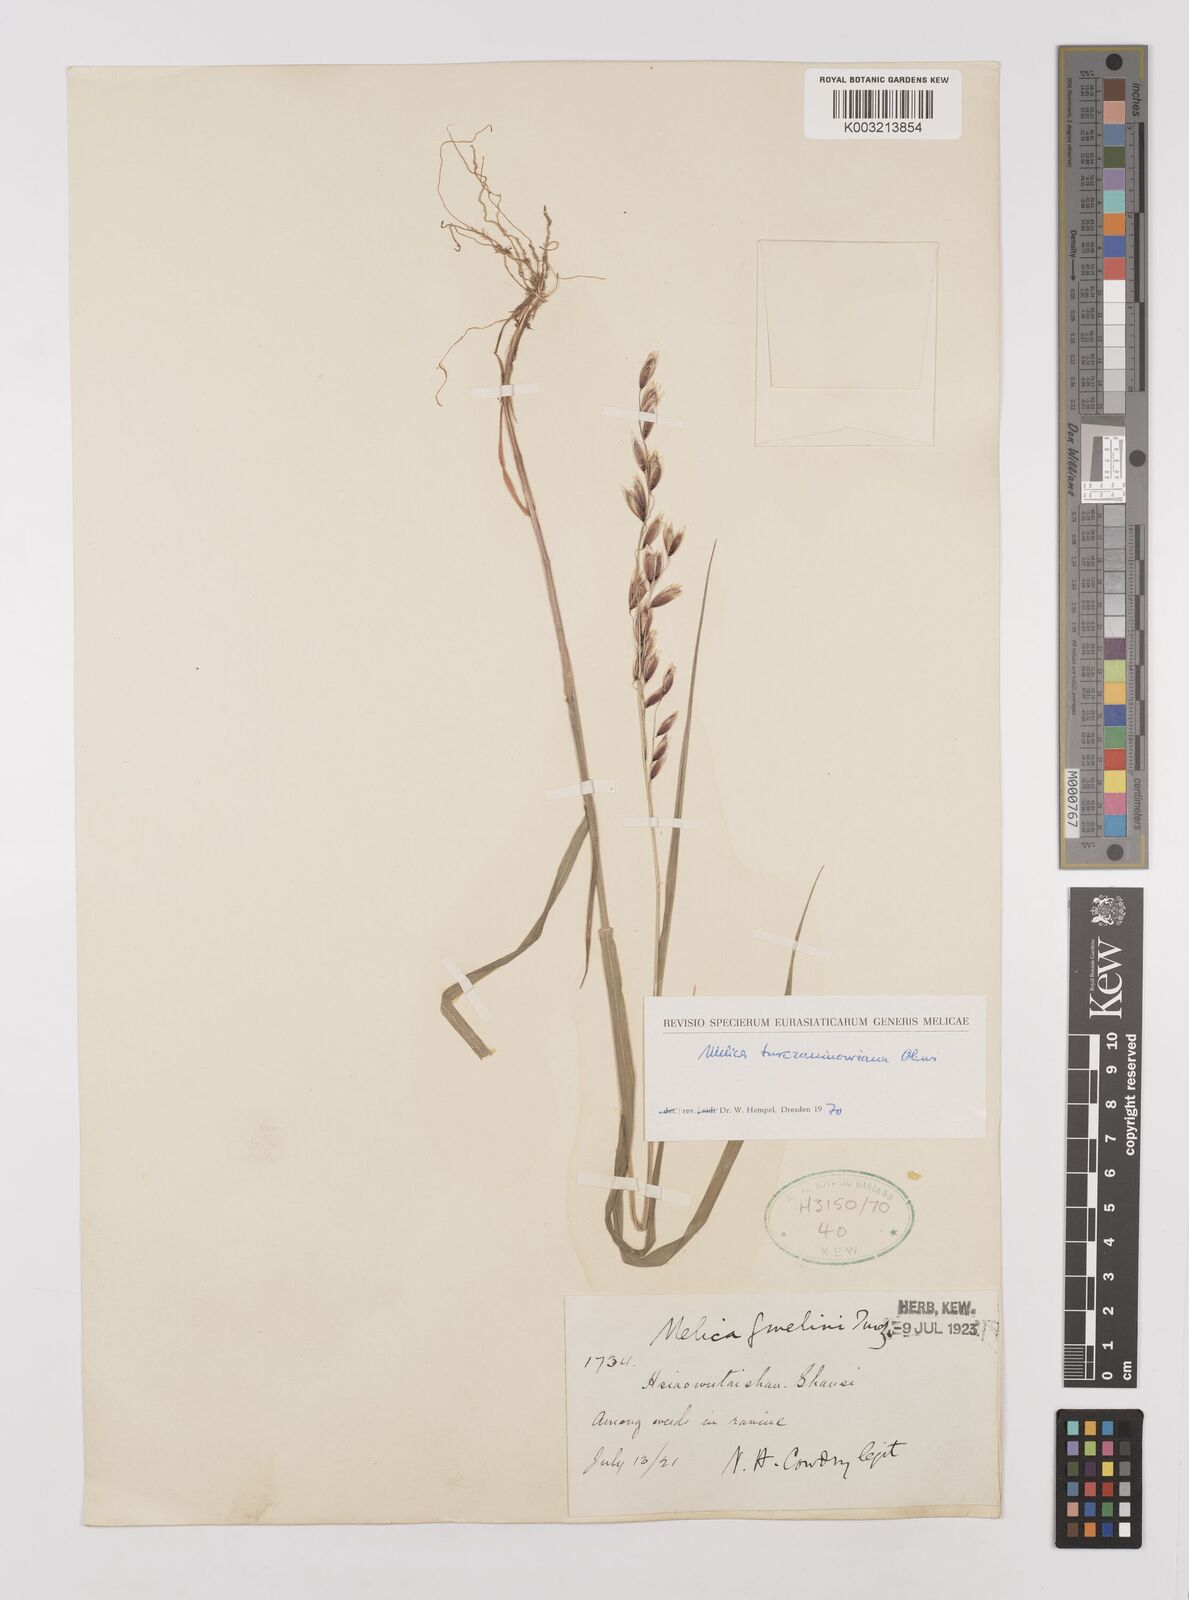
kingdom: Plantae
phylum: Tracheophyta
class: Liliopsida
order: Poales
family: Poaceae
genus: Melica
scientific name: Melica turczaninowiana
